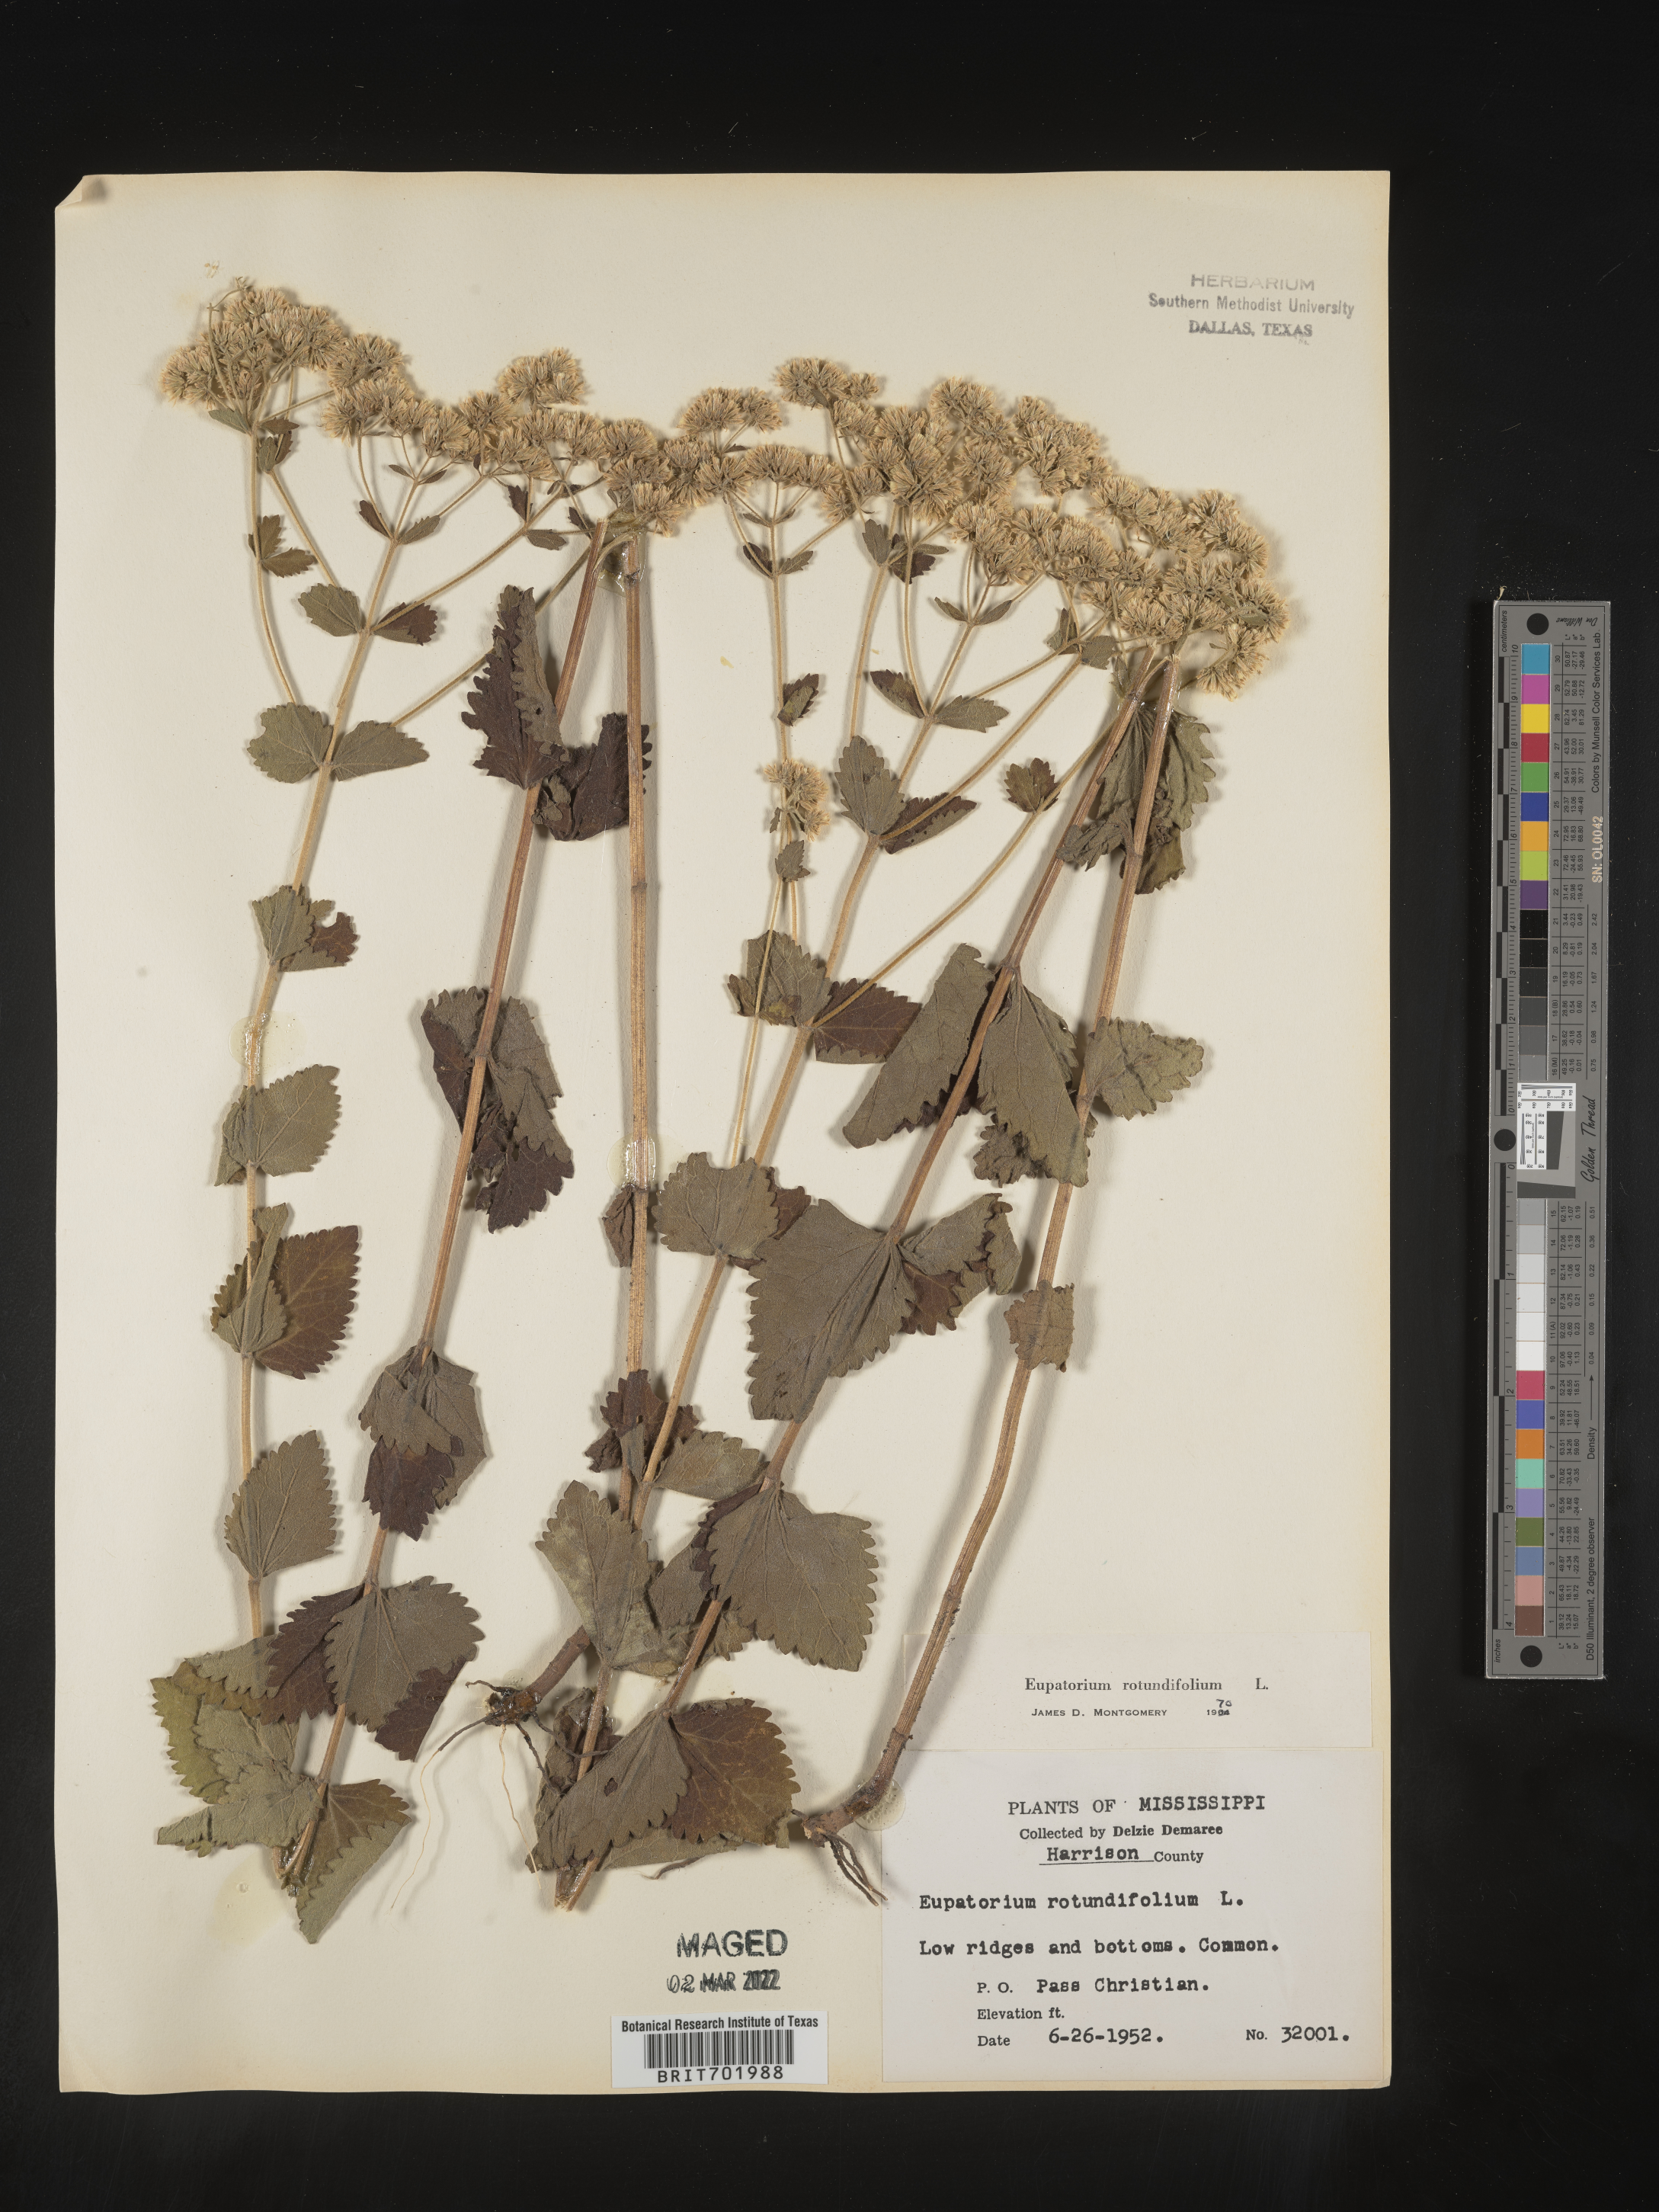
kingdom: Plantae
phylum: Tracheophyta
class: Magnoliopsida
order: Asterales
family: Asteraceae
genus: Eupatorium
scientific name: Eupatorium rotundifolium
